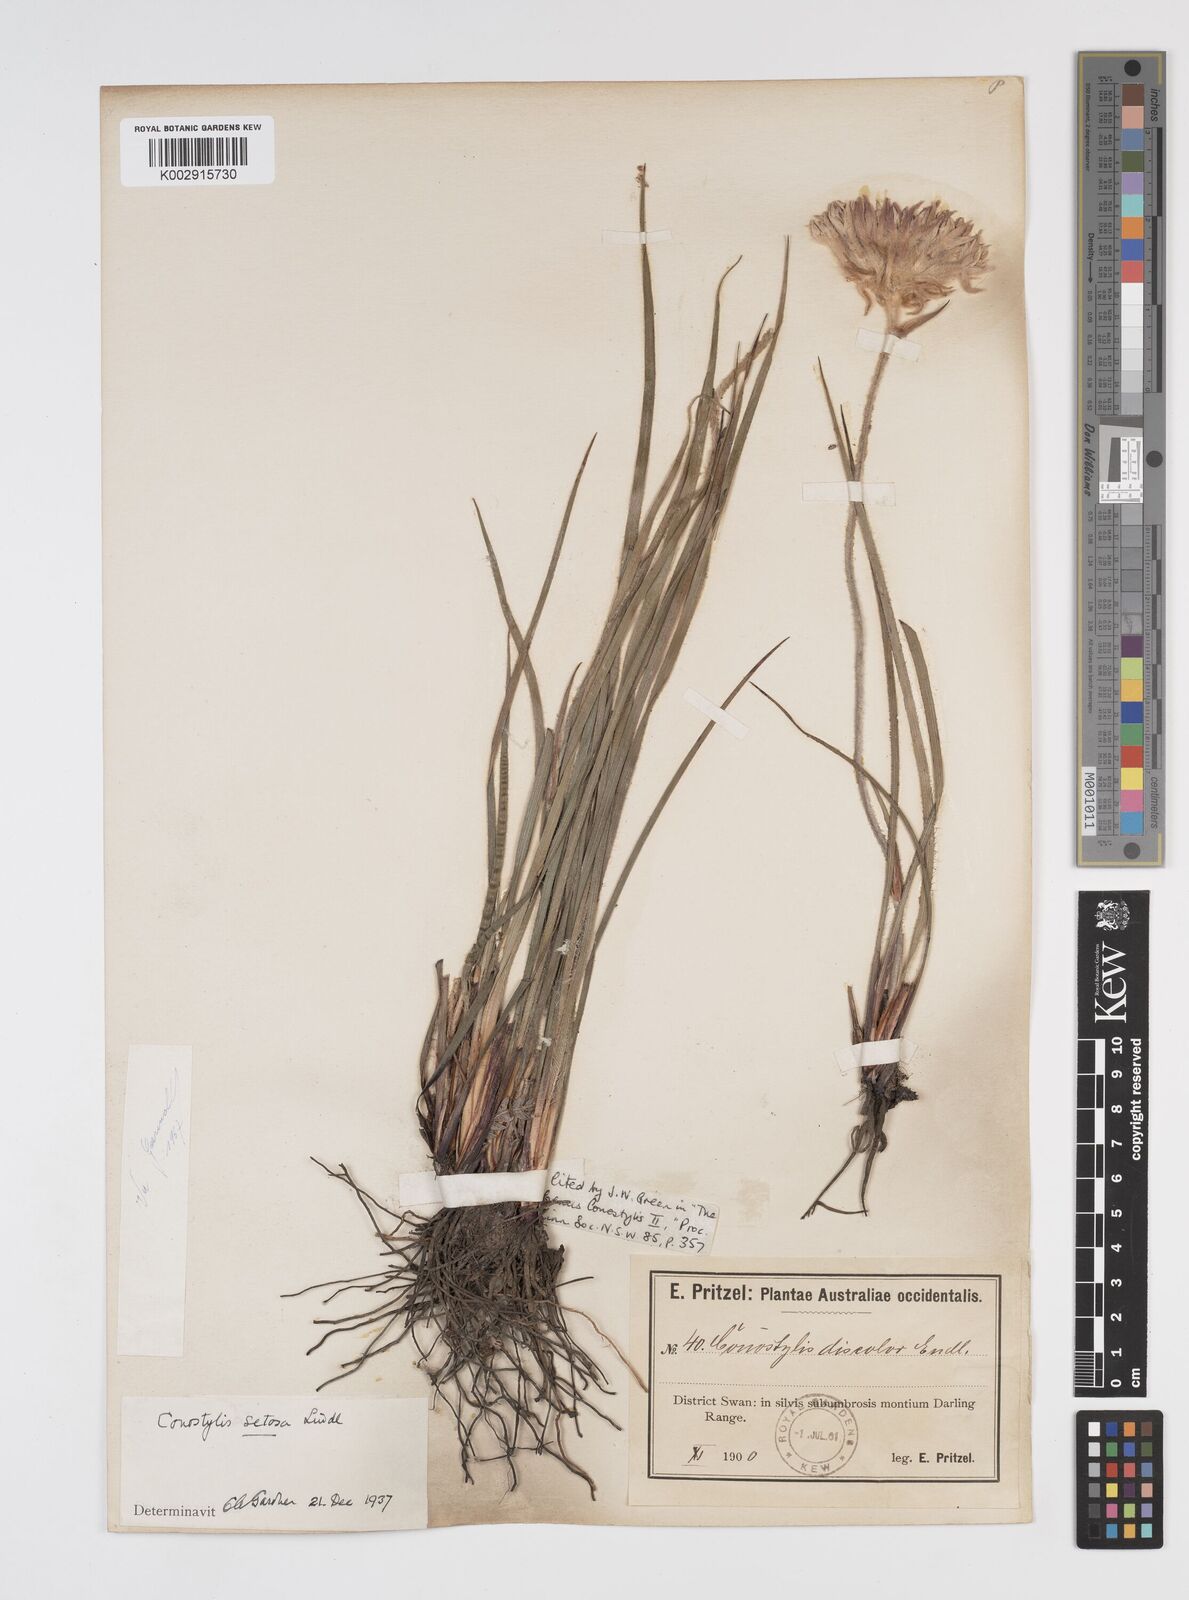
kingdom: Plantae
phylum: Tracheophyta
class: Liliopsida
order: Commelinales
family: Haemodoraceae
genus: Conostylis
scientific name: Conostylis setosa
